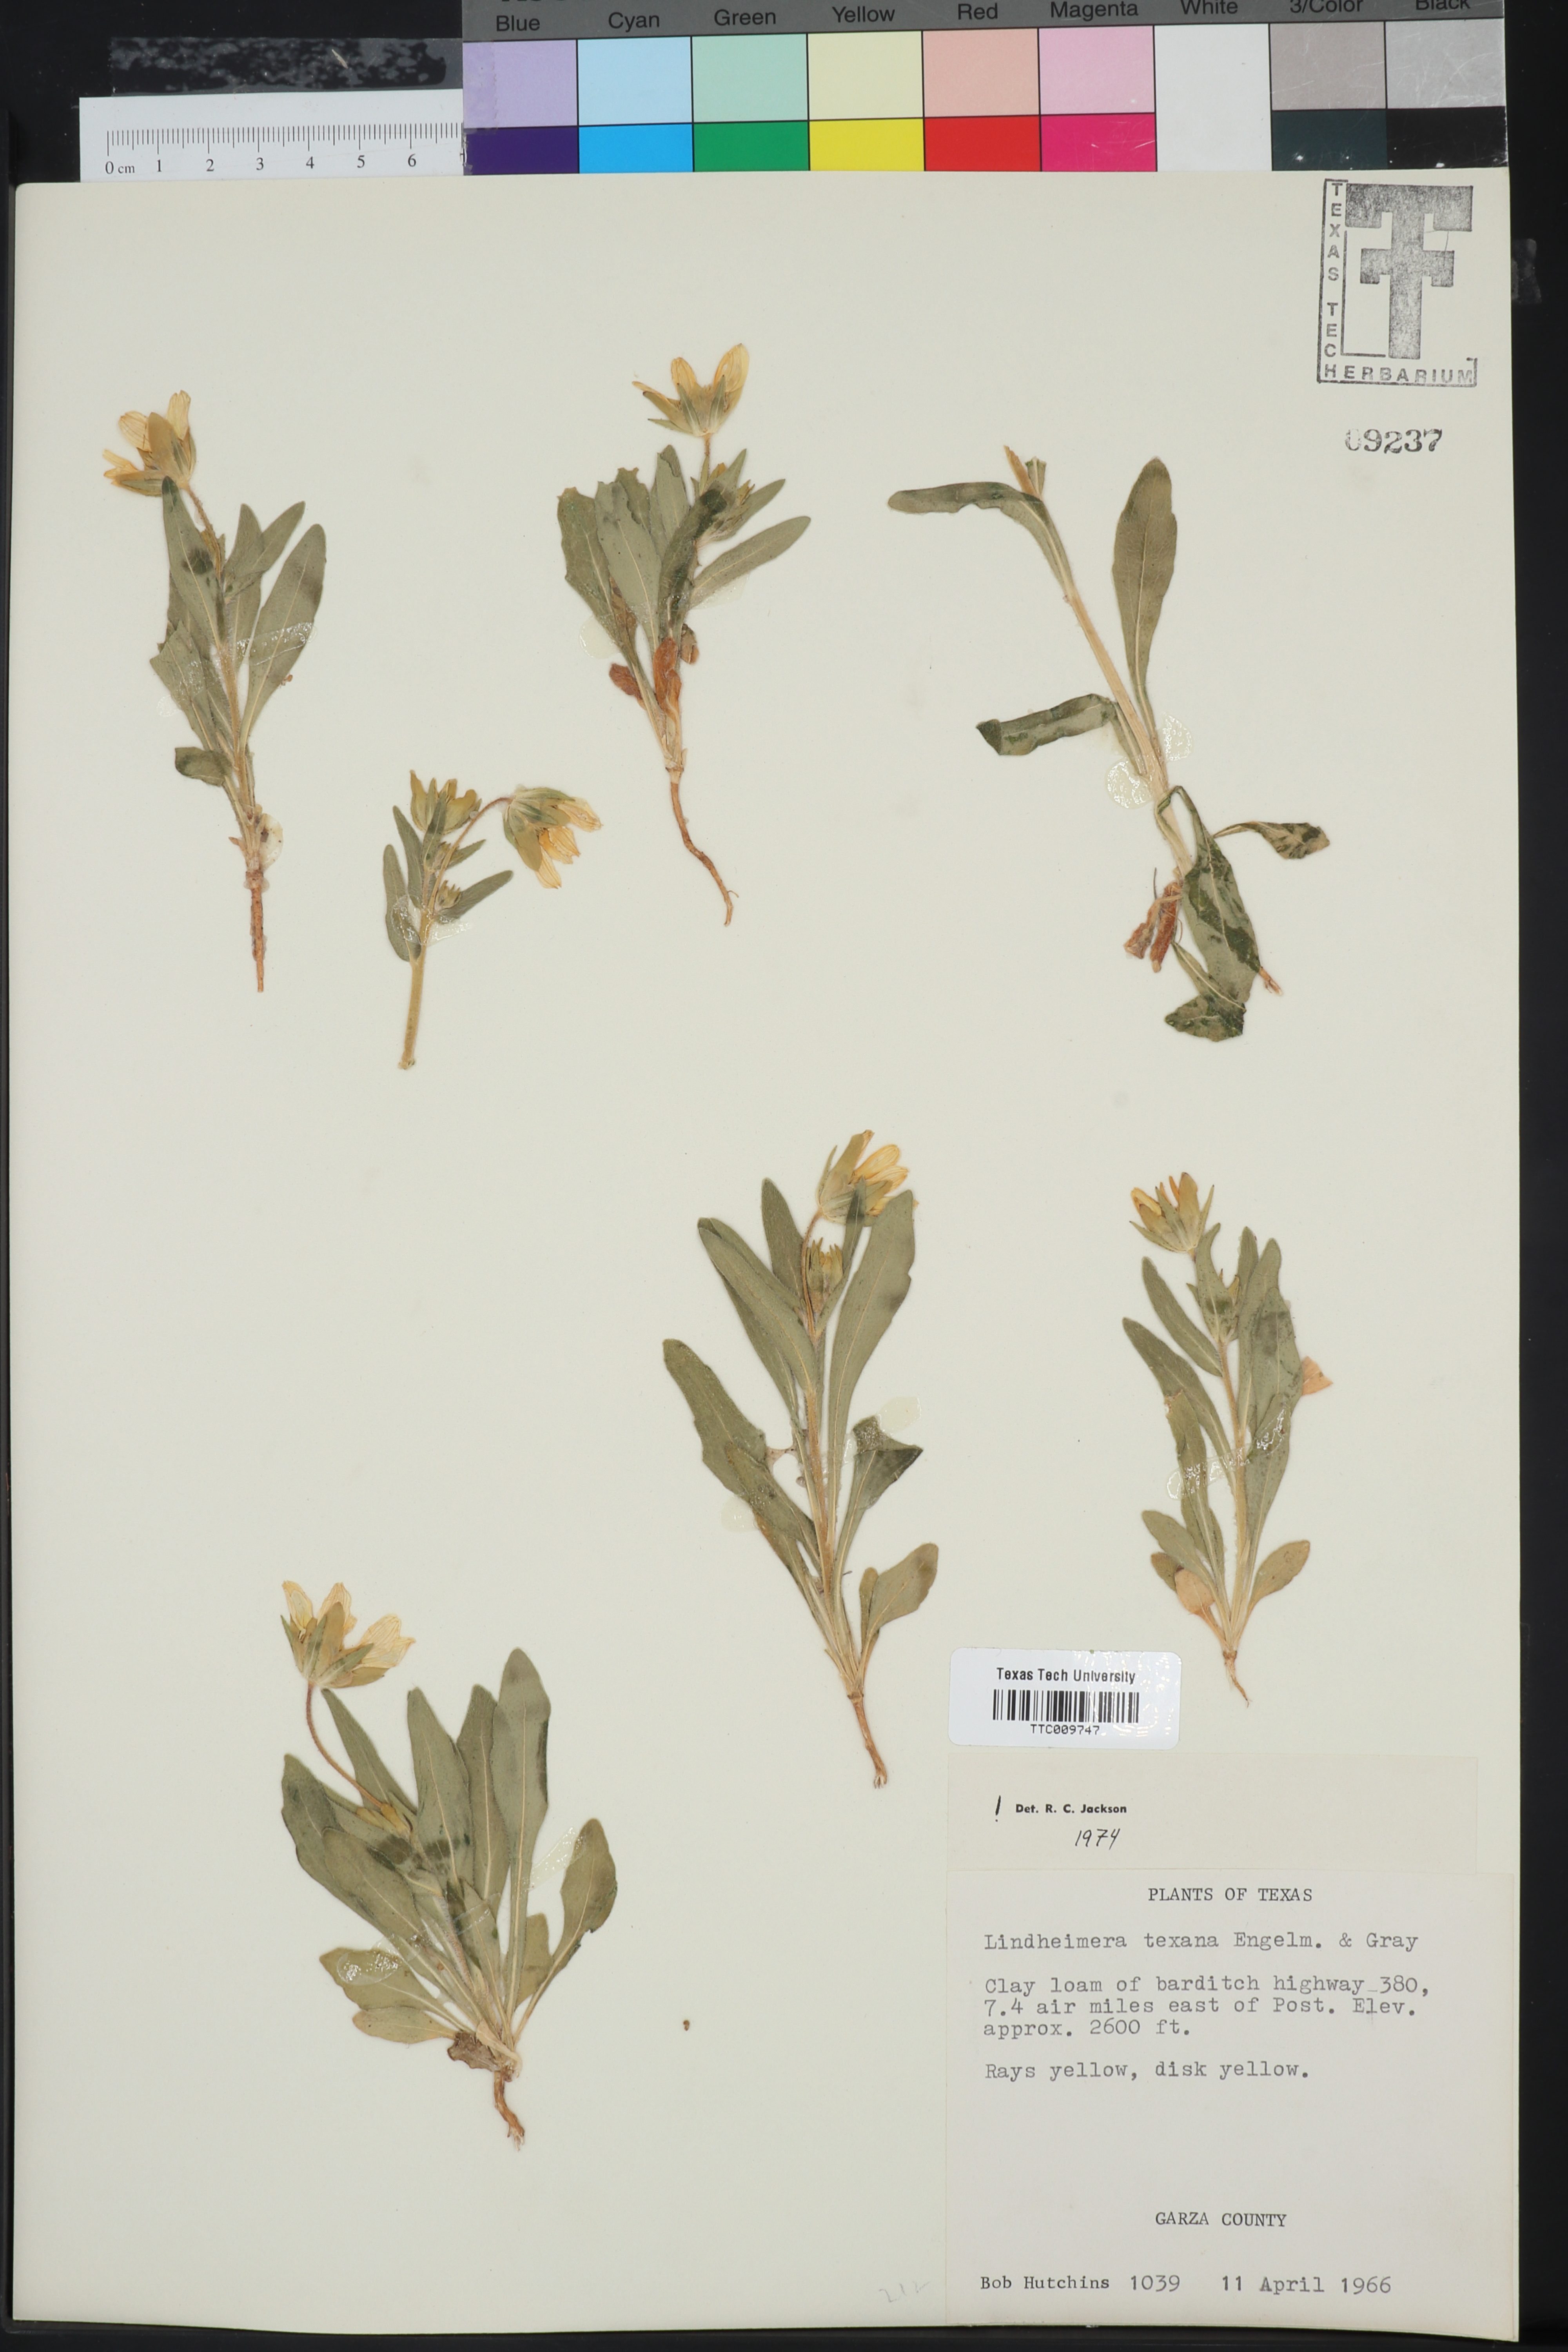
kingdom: Plantae
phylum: Tracheophyta
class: Magnoliopsida
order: Asterales
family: Asteraceae
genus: Lindheimera
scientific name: Lindheimera texana
